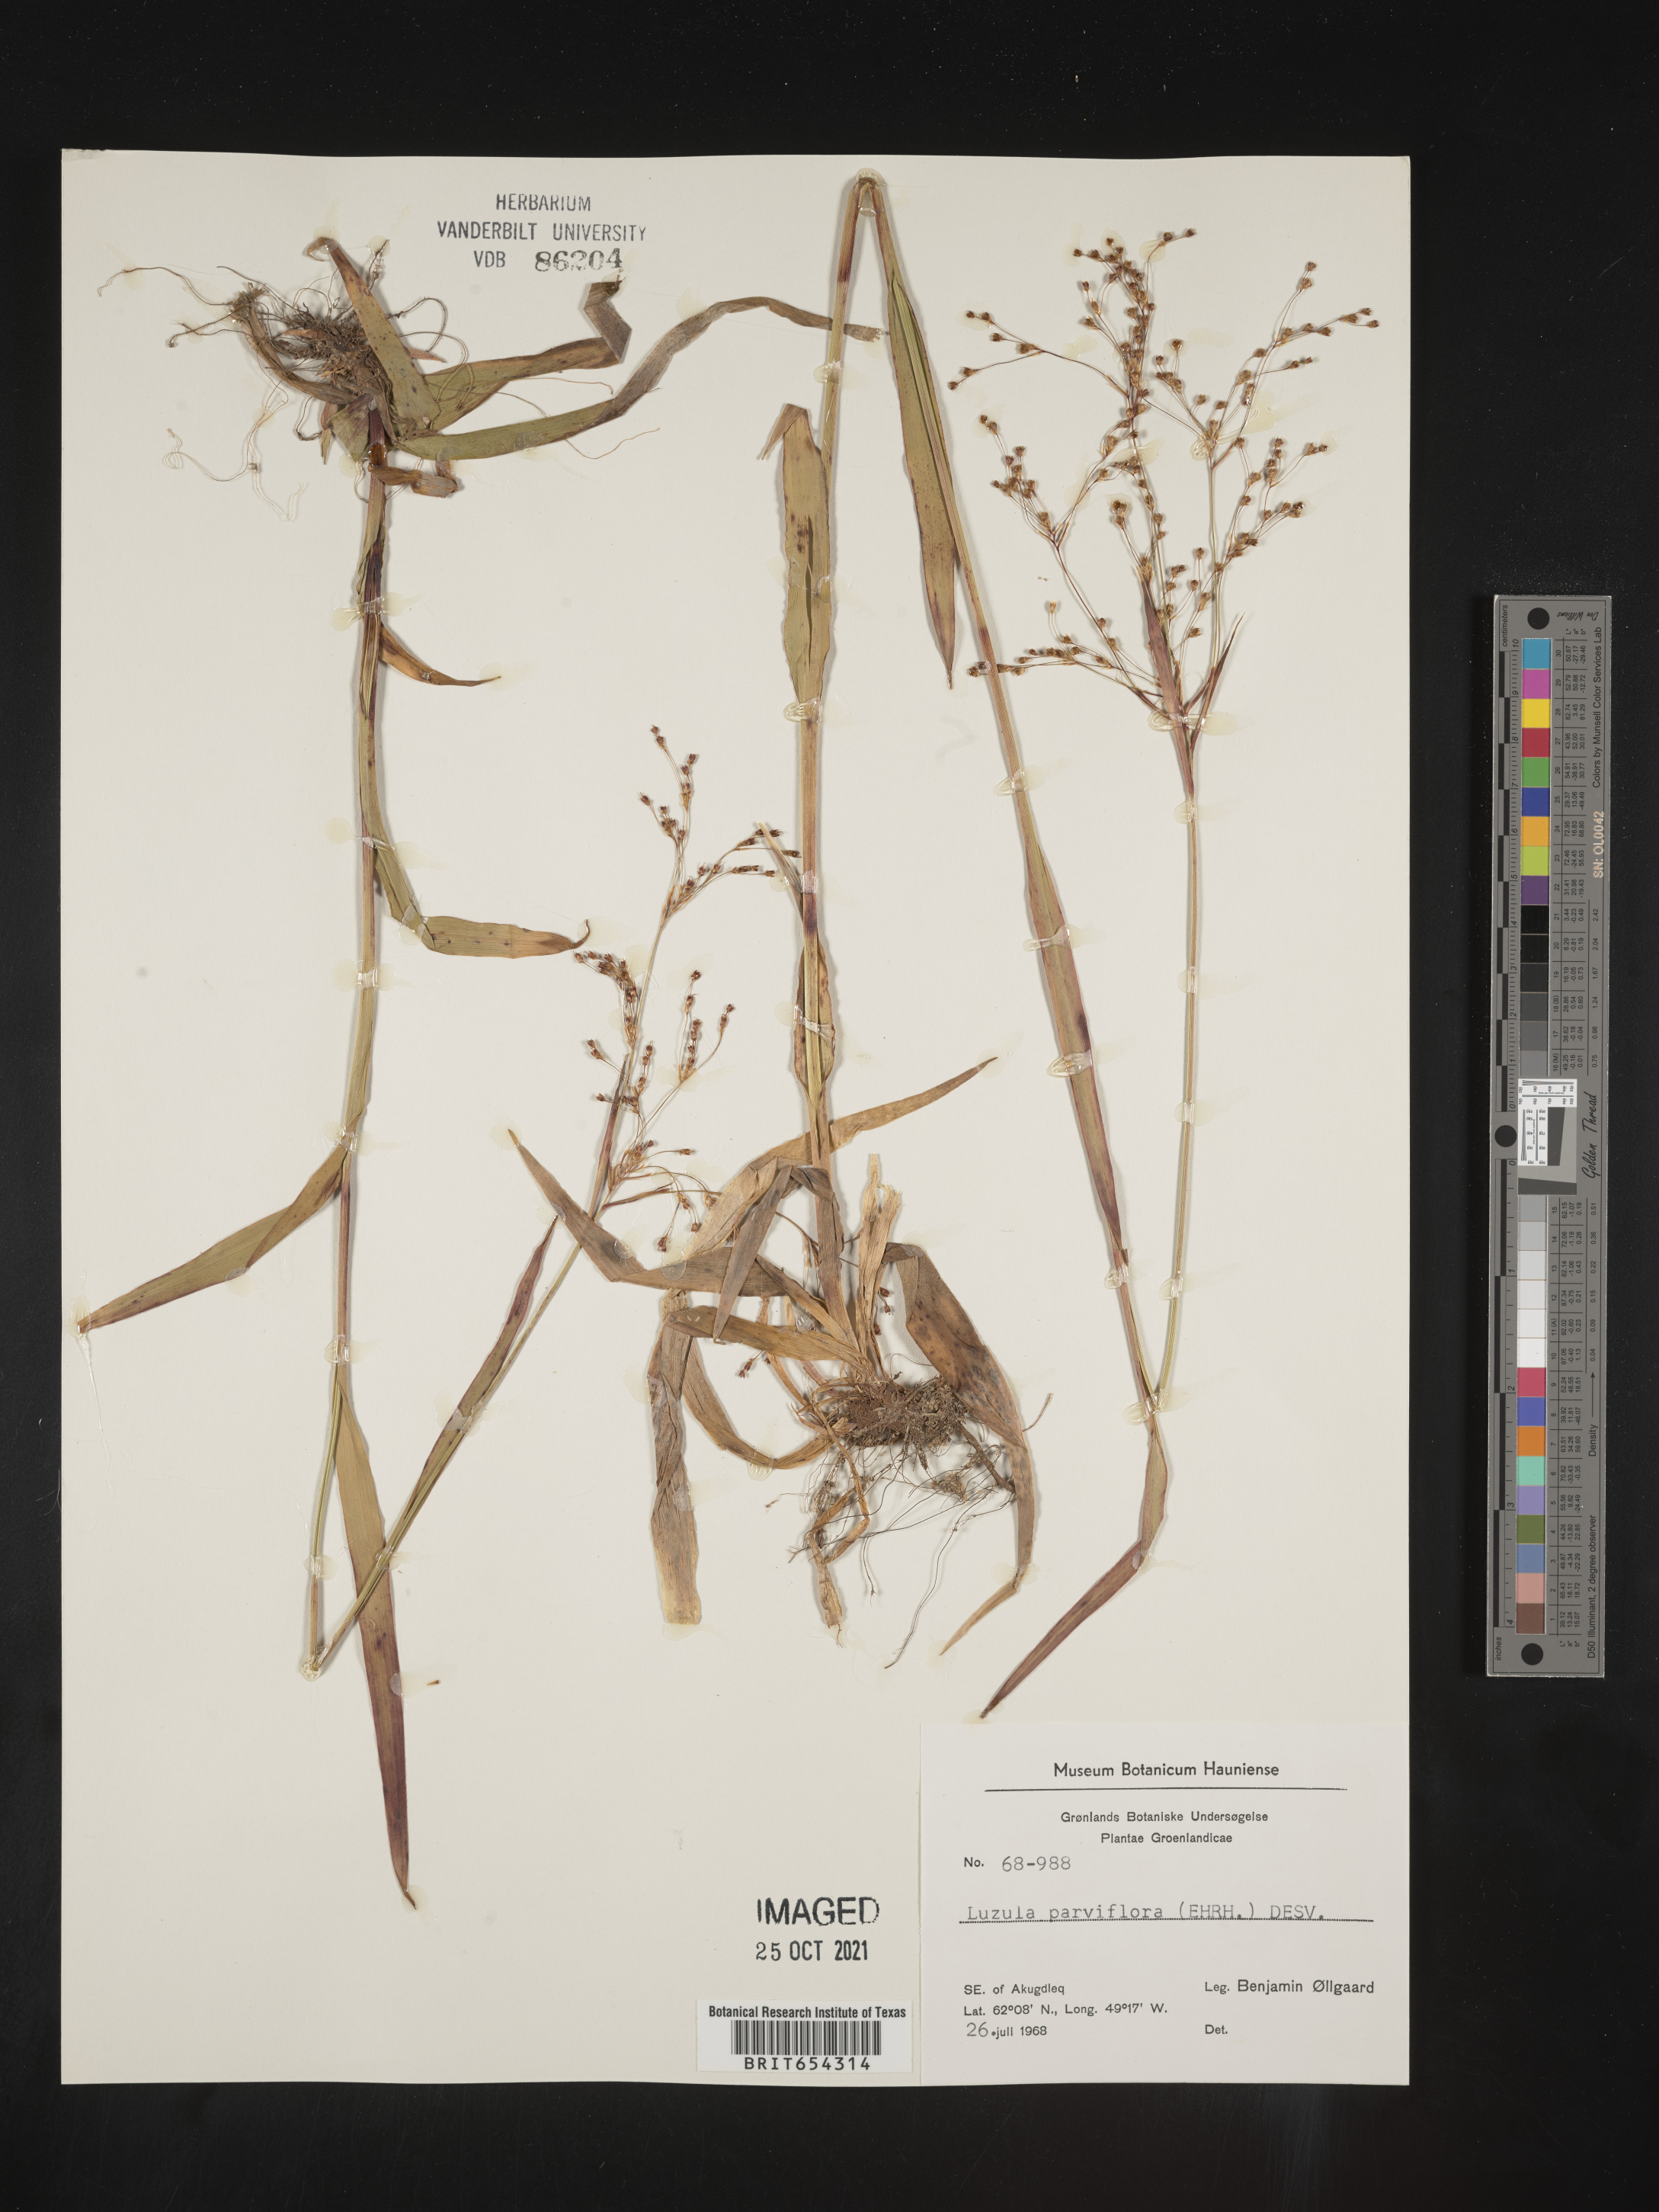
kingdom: Plantae
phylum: Tracheophyta
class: Liliopsida
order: Poales
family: Juncaceae
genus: Luzula
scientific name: Luzula
